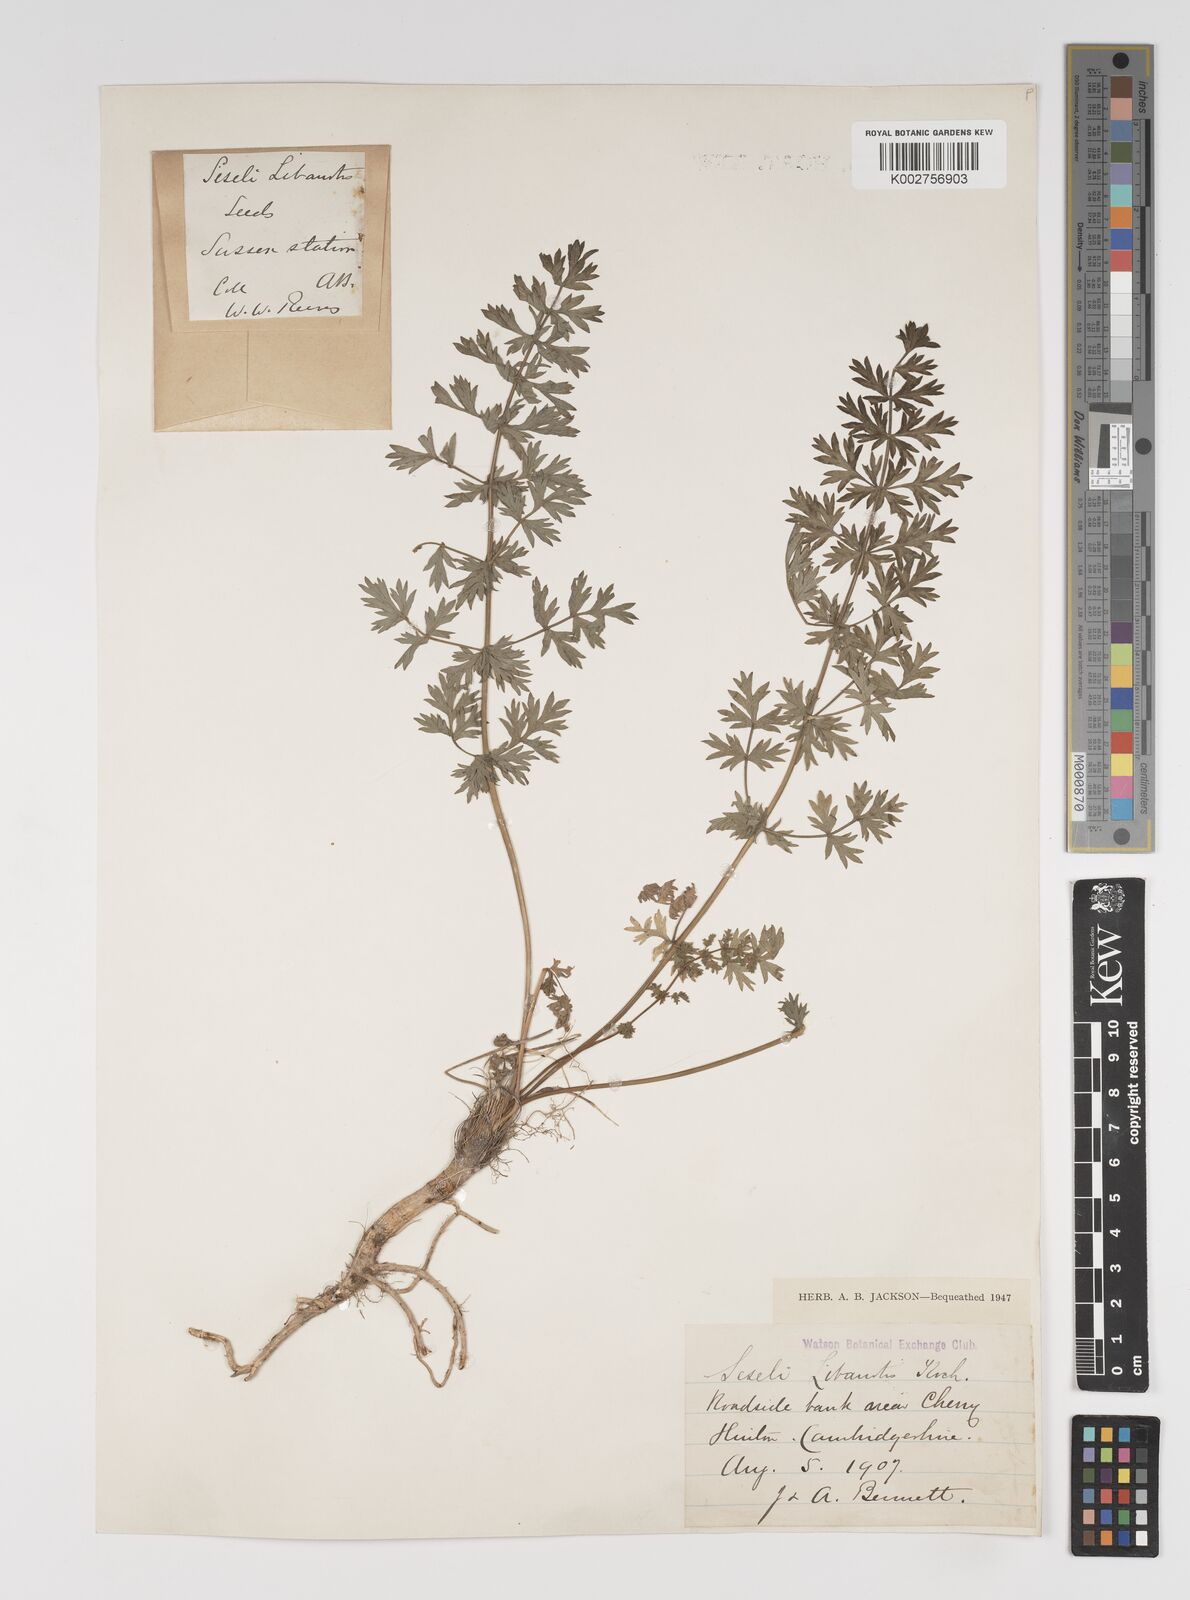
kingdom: Plantae
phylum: Tracheophyta
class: Magnoliopsida
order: Apiales
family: Apiaceae
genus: Seseli
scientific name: Seseli libanotis
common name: Mooncarrot
